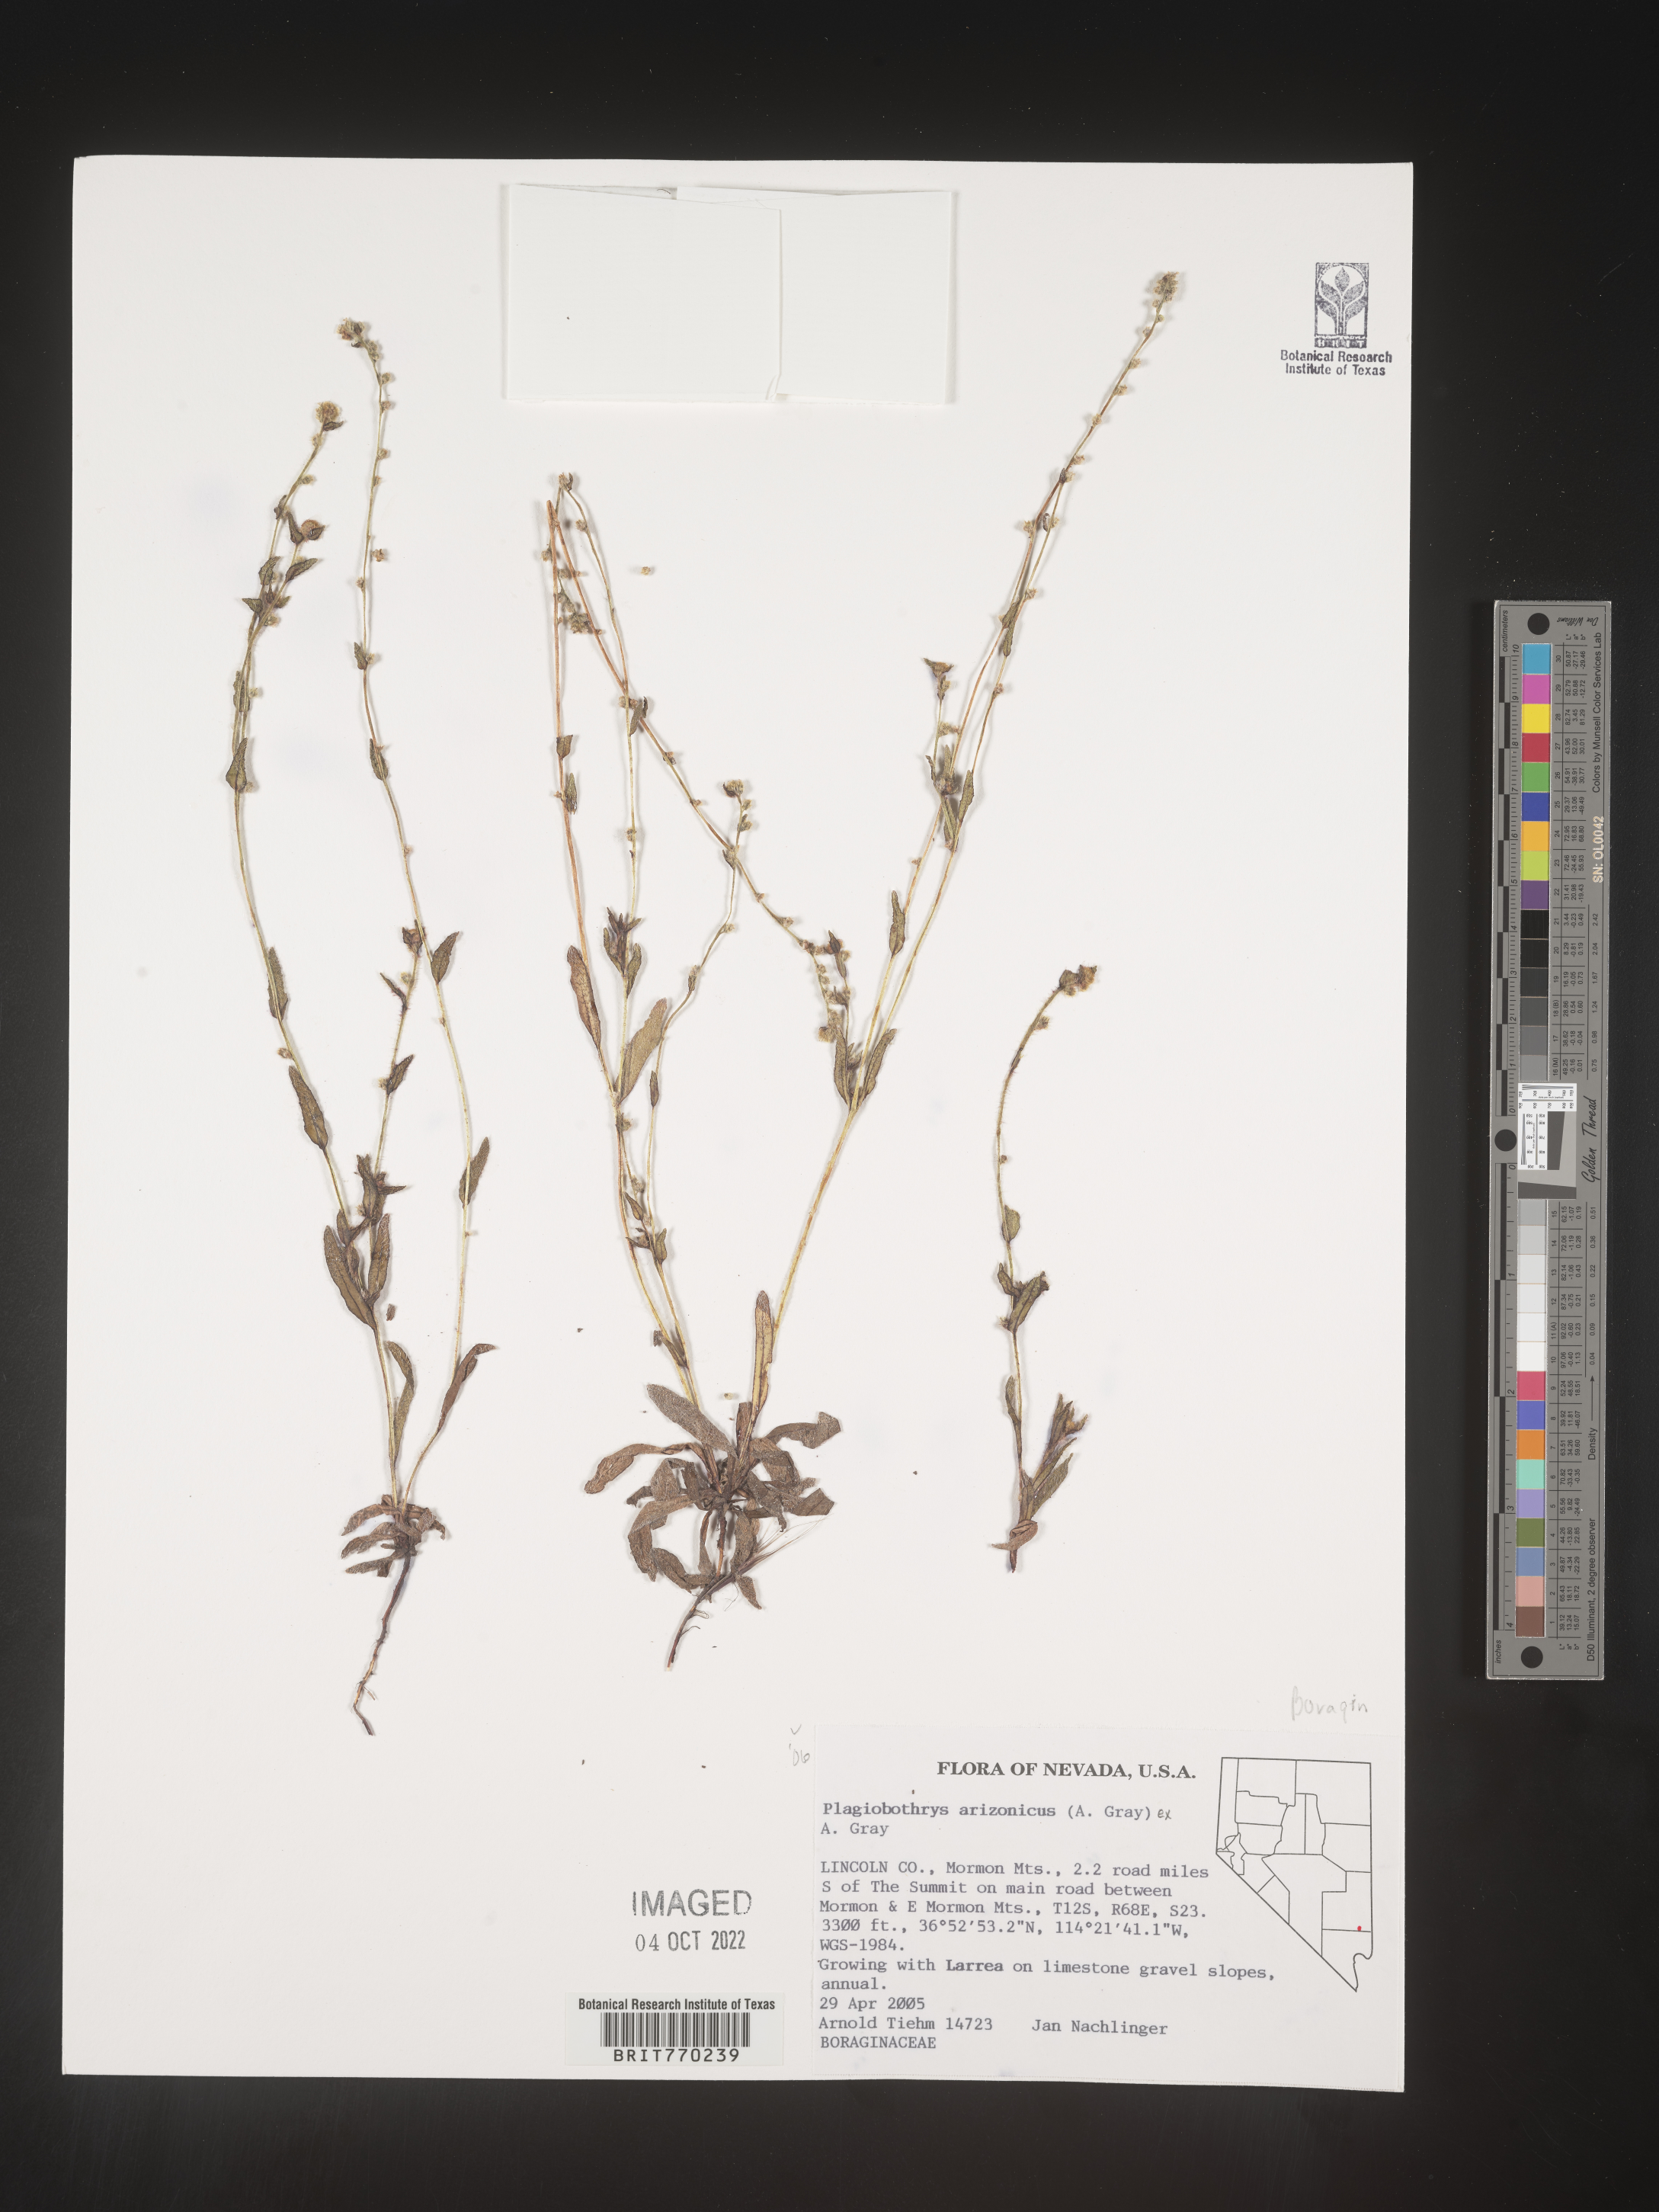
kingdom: Plantae
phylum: Tracheophyta
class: Magnoliopsida
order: Boraginales
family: Boraginaceae
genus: Plagiobothrys
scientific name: Plagiobothrys
